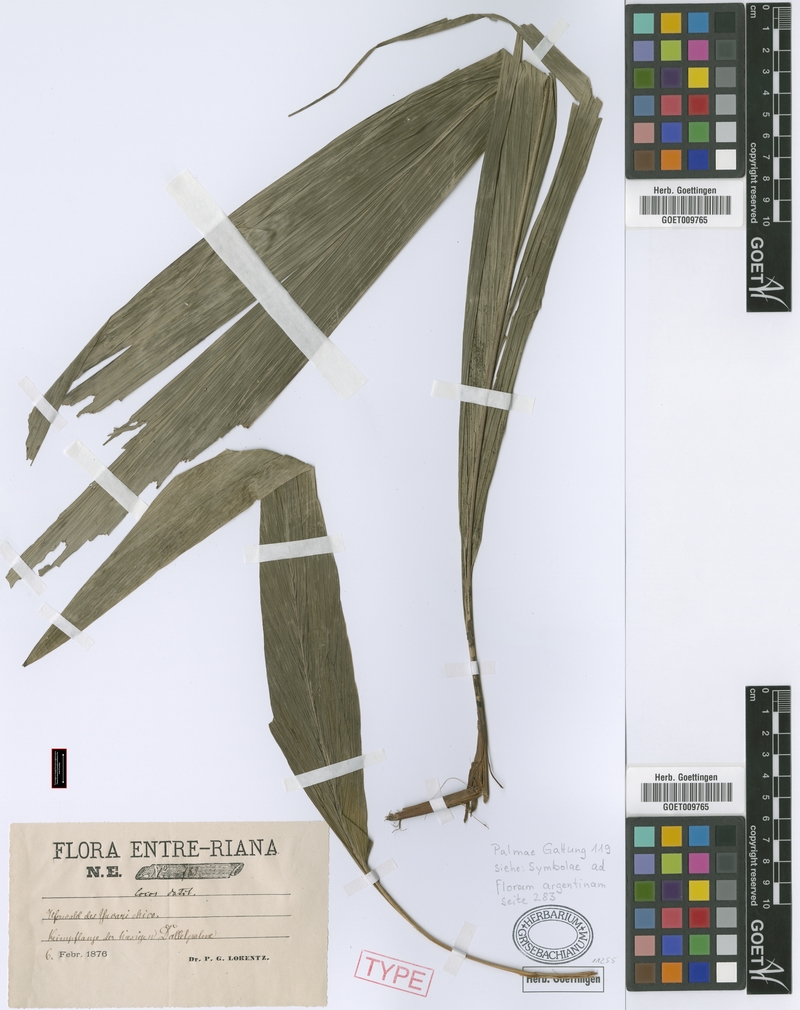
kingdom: Plantae
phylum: Tracheophyta
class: Liliopsida
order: Arecales
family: Arecaceae
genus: Syagrus
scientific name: Syagrus romanzoffiana
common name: Queen palm
